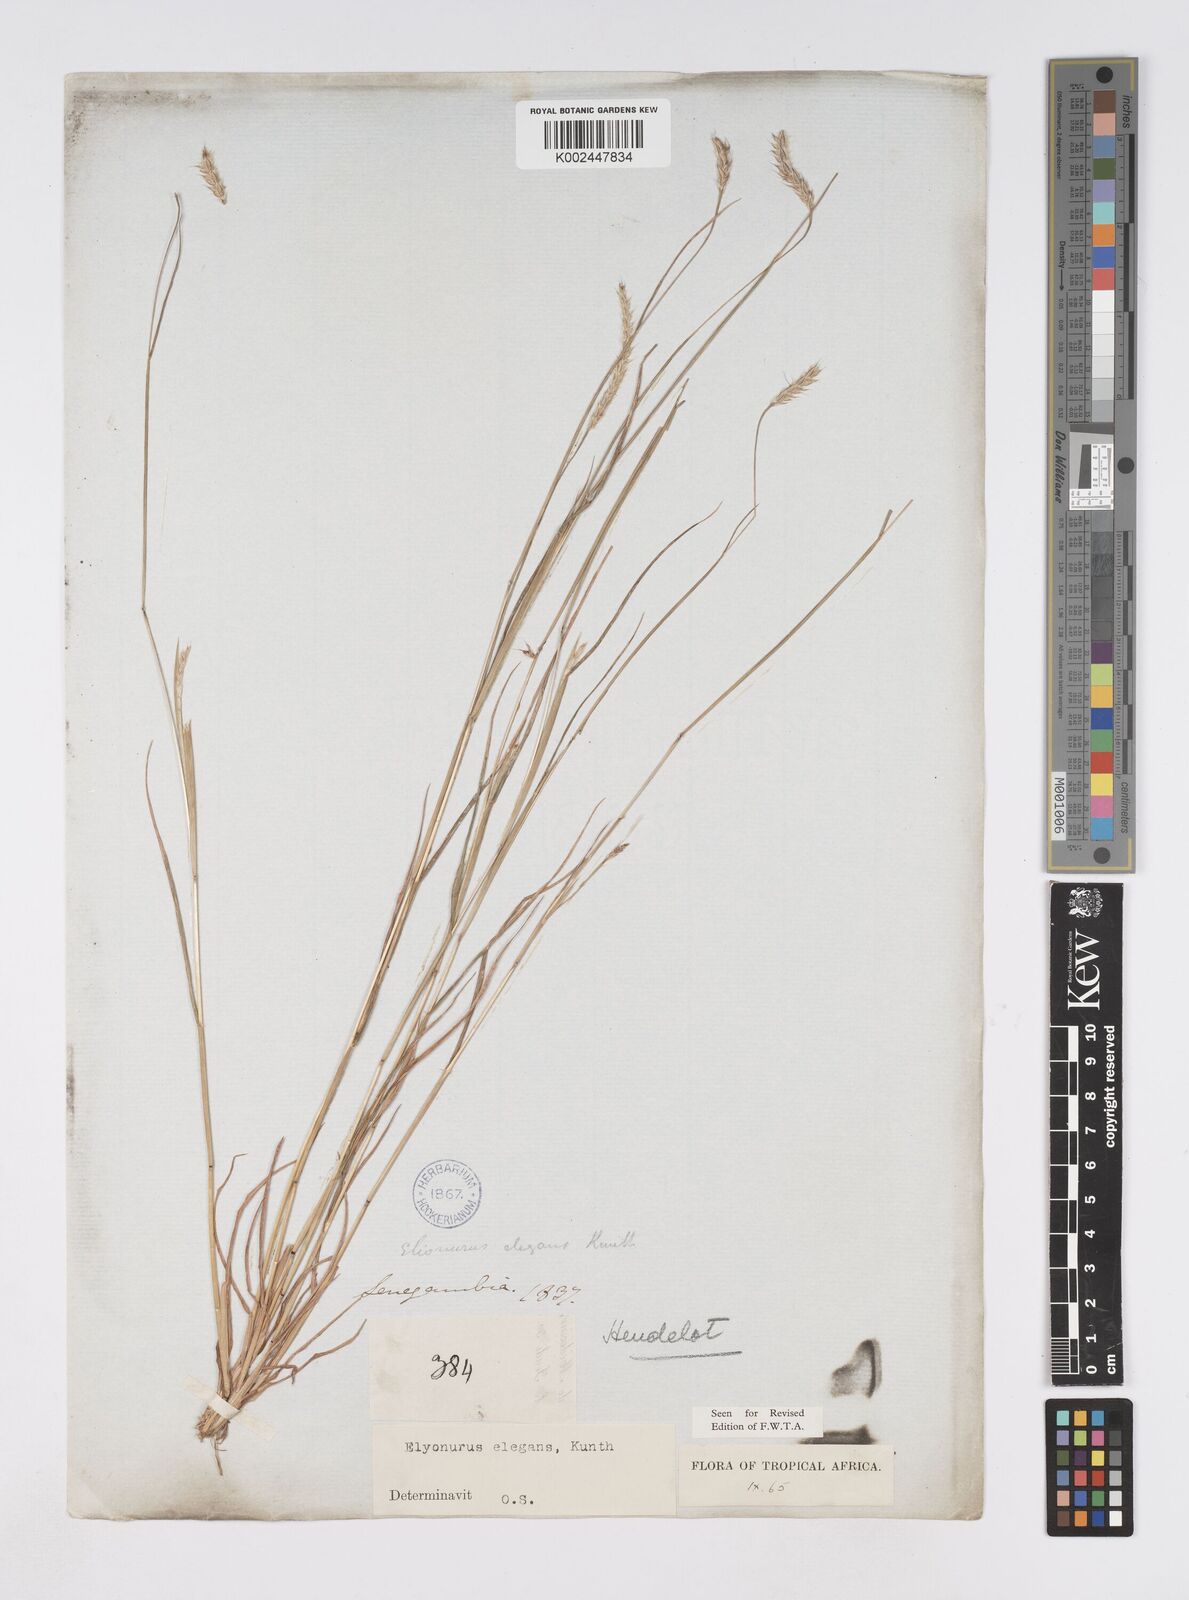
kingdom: Plantae
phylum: Tracheophyta
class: Liliopsida
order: Poales
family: Poaceae
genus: Elionurus
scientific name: Elionurus elegans
